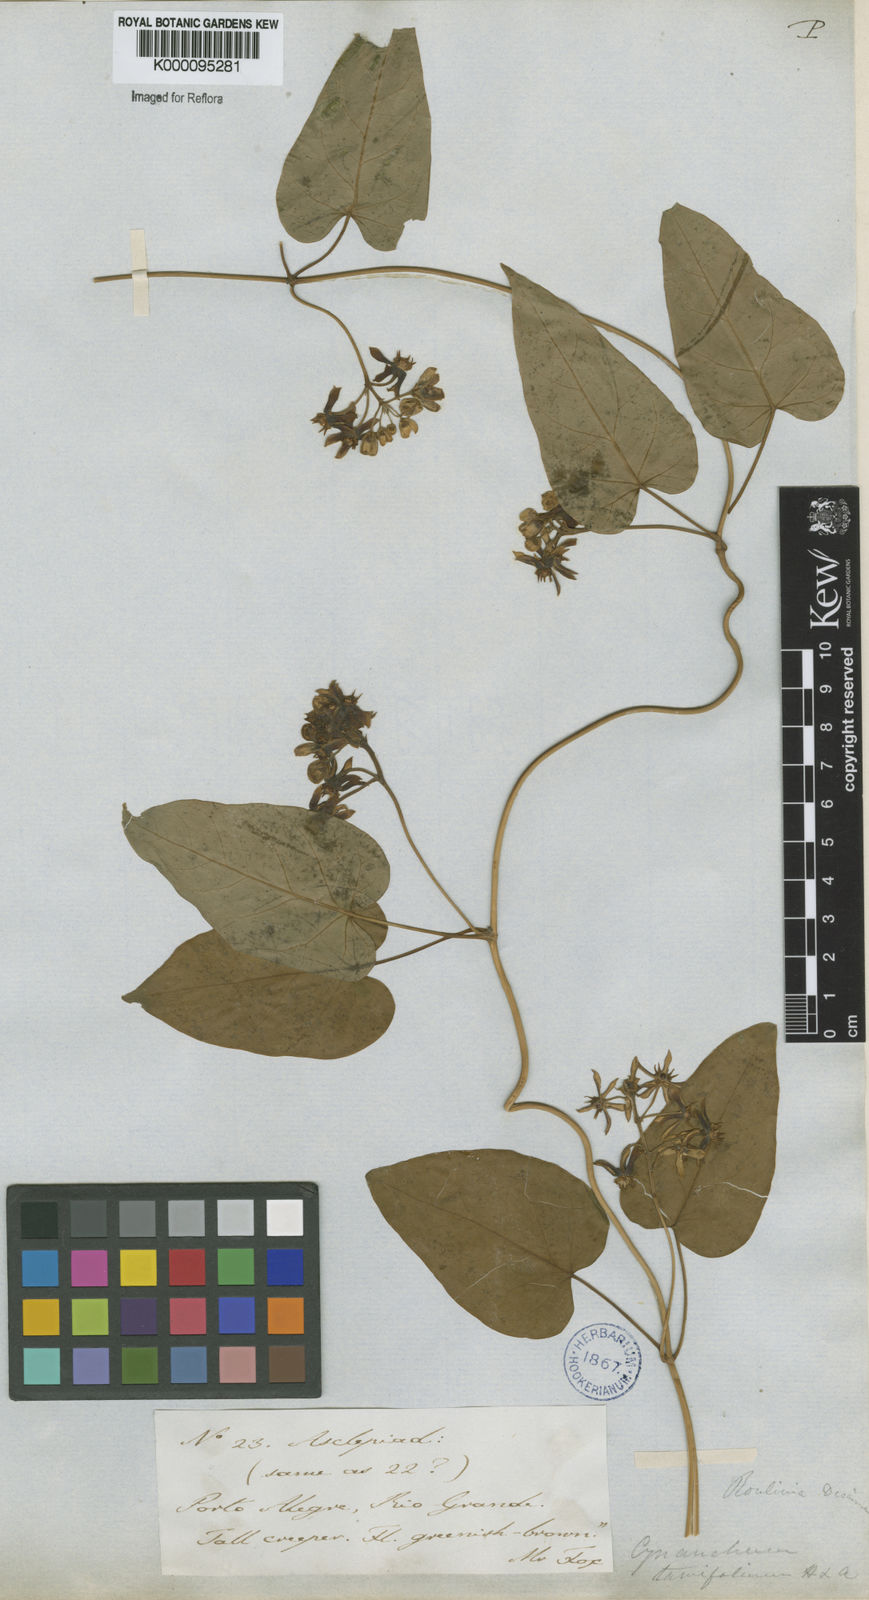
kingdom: Plantae
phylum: Tracheophyta
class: Magnoliopsida
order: Gentianales
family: Apocynaceae
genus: Cynanchum
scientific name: Cynanchum montevidense
